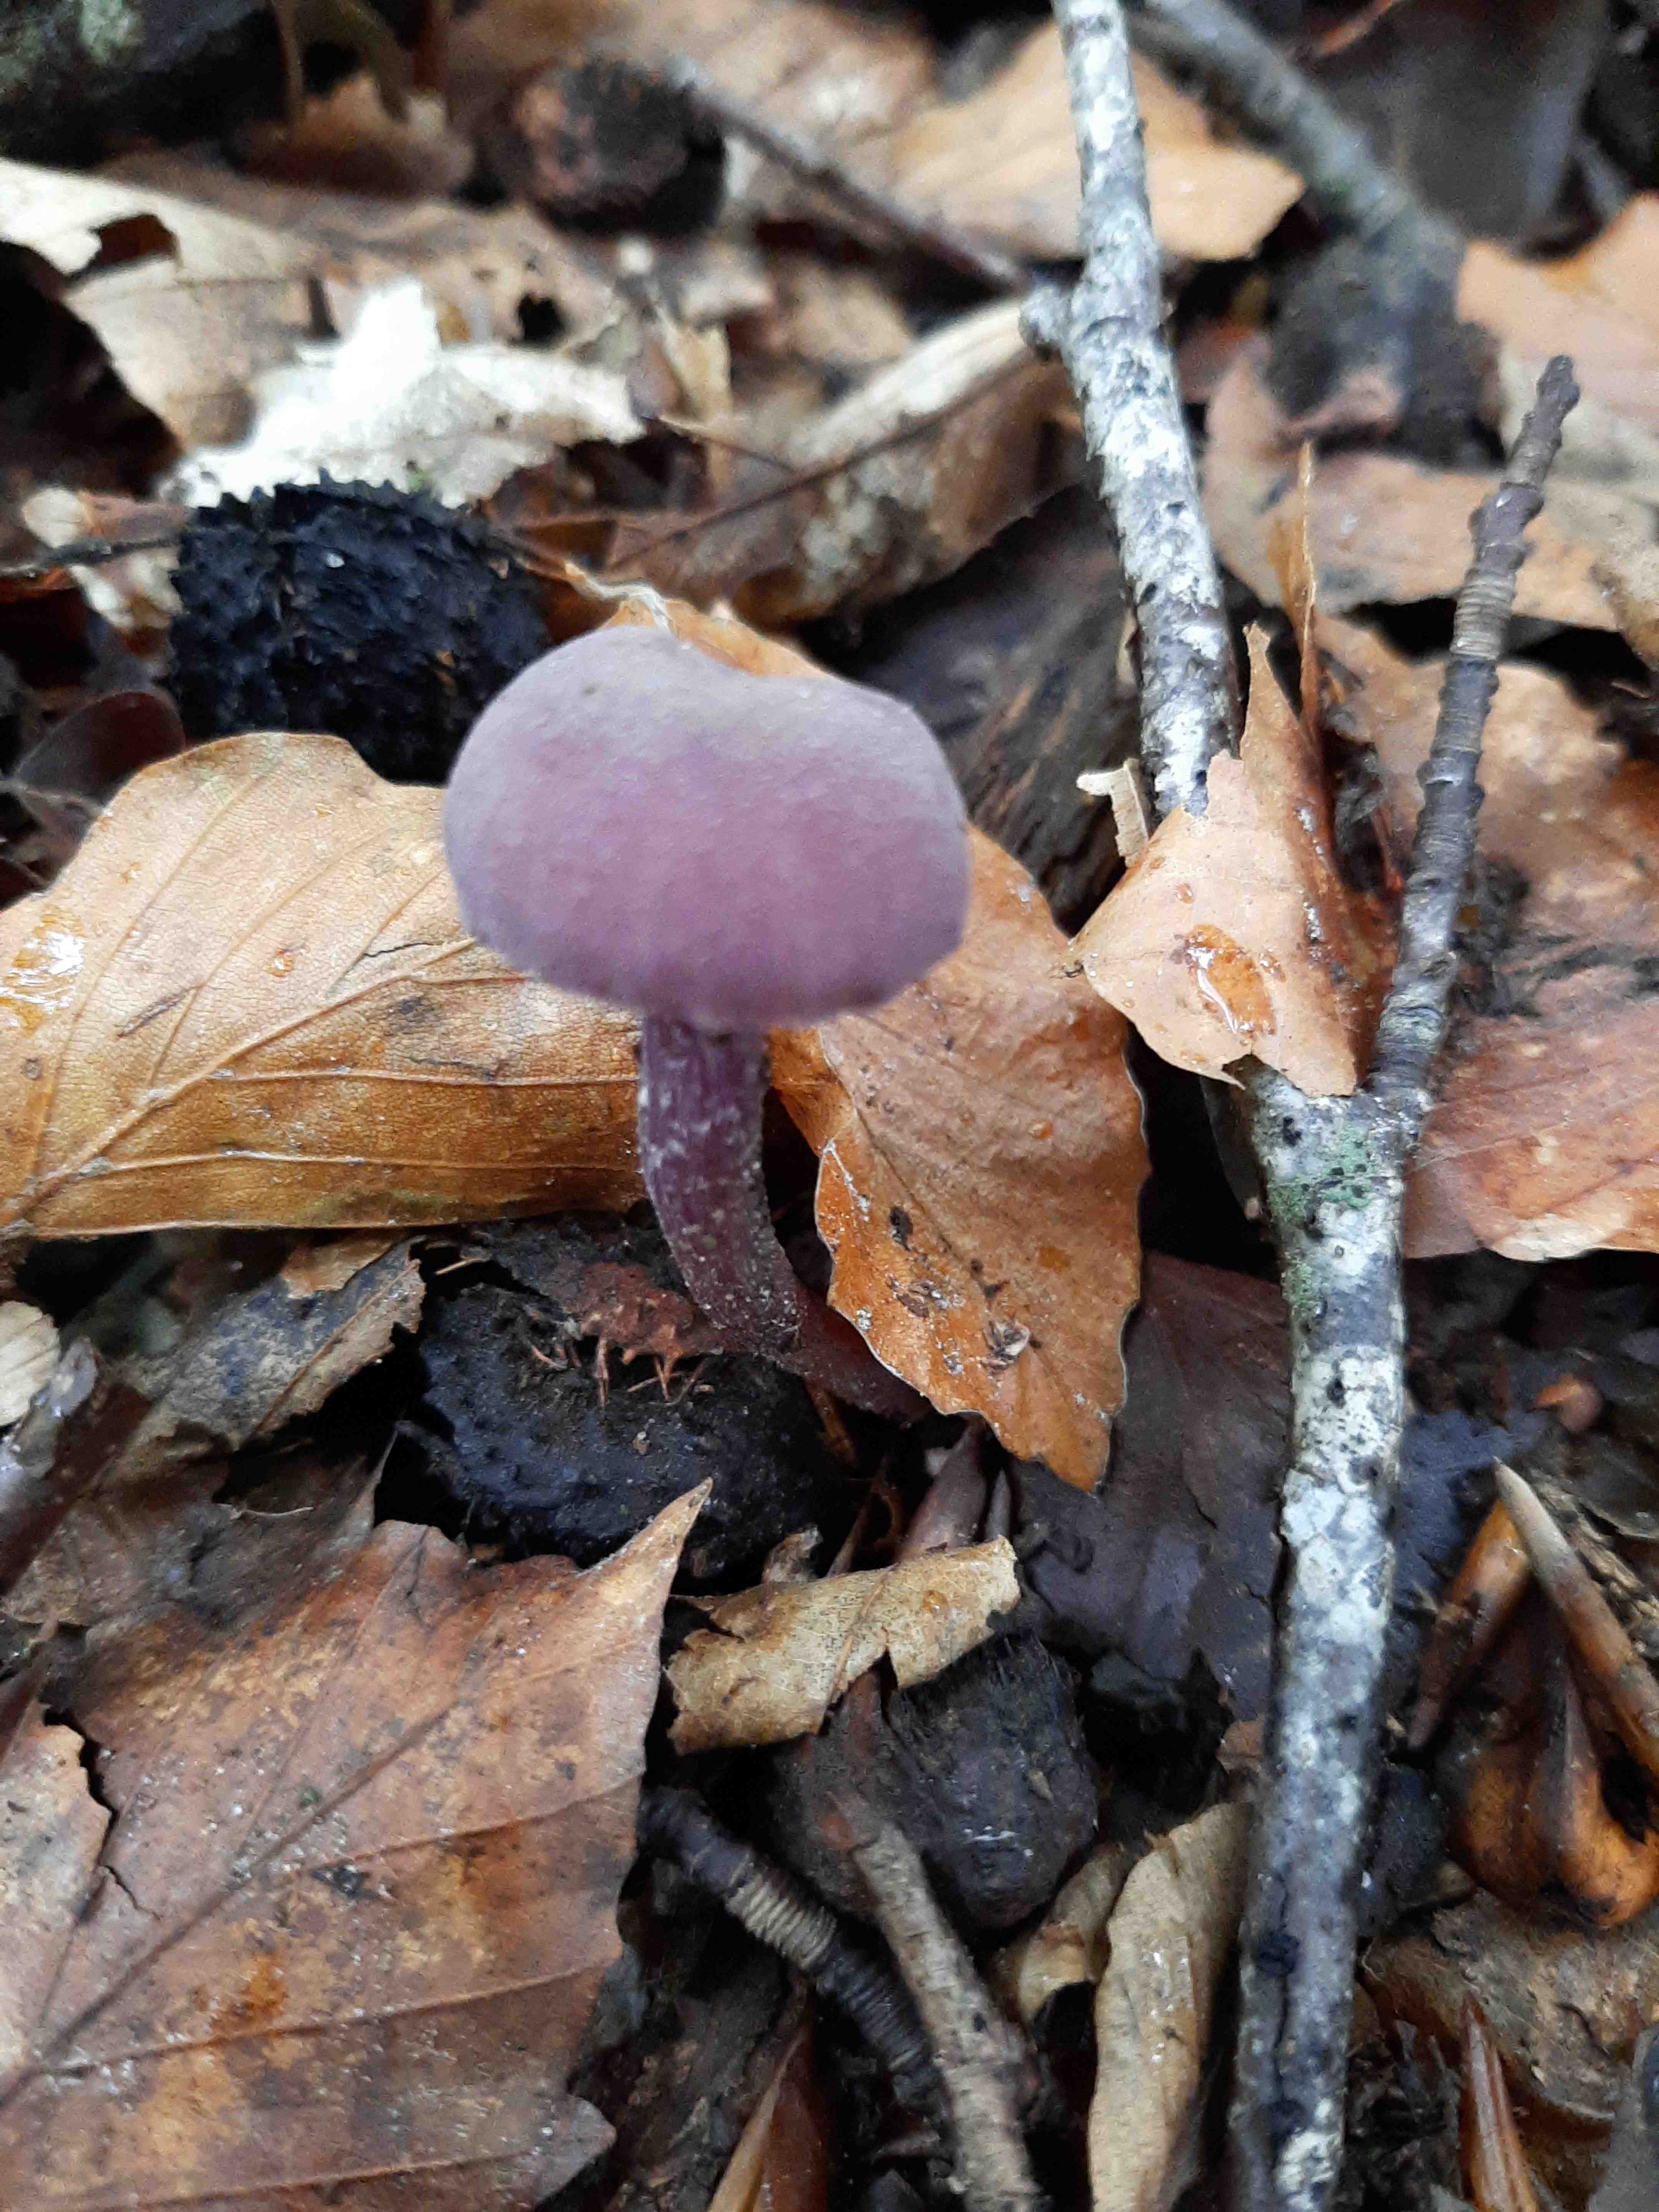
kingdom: Fungi
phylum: Basidiomycota
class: Agaricomycetes
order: Agaricales
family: Hydnangiaceae
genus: Laccaria
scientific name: Laccaria amethystina
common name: violet ametysthat
